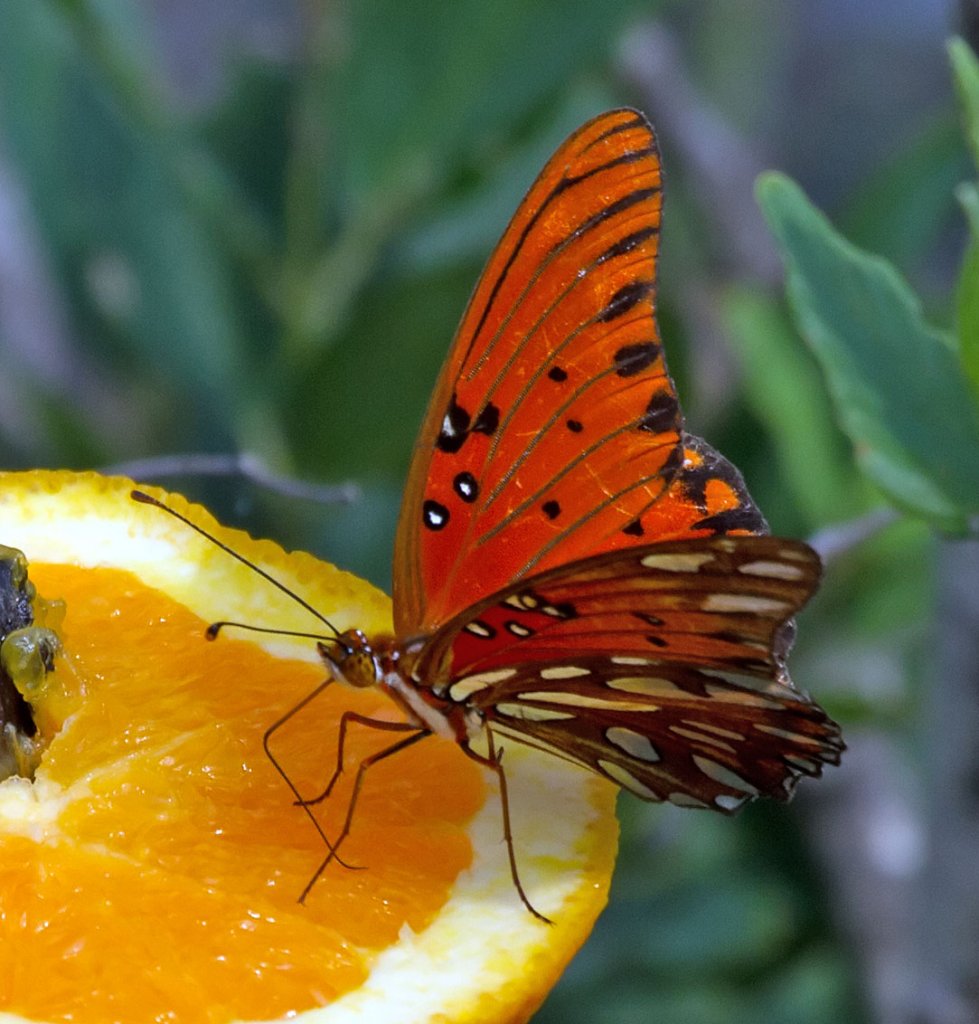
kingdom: Animalia
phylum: Arthropoda
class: Insecta
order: Lepidoptera
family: Nymphalidae
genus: Dione
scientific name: Dione vanillae
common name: Gulf Fritillary
